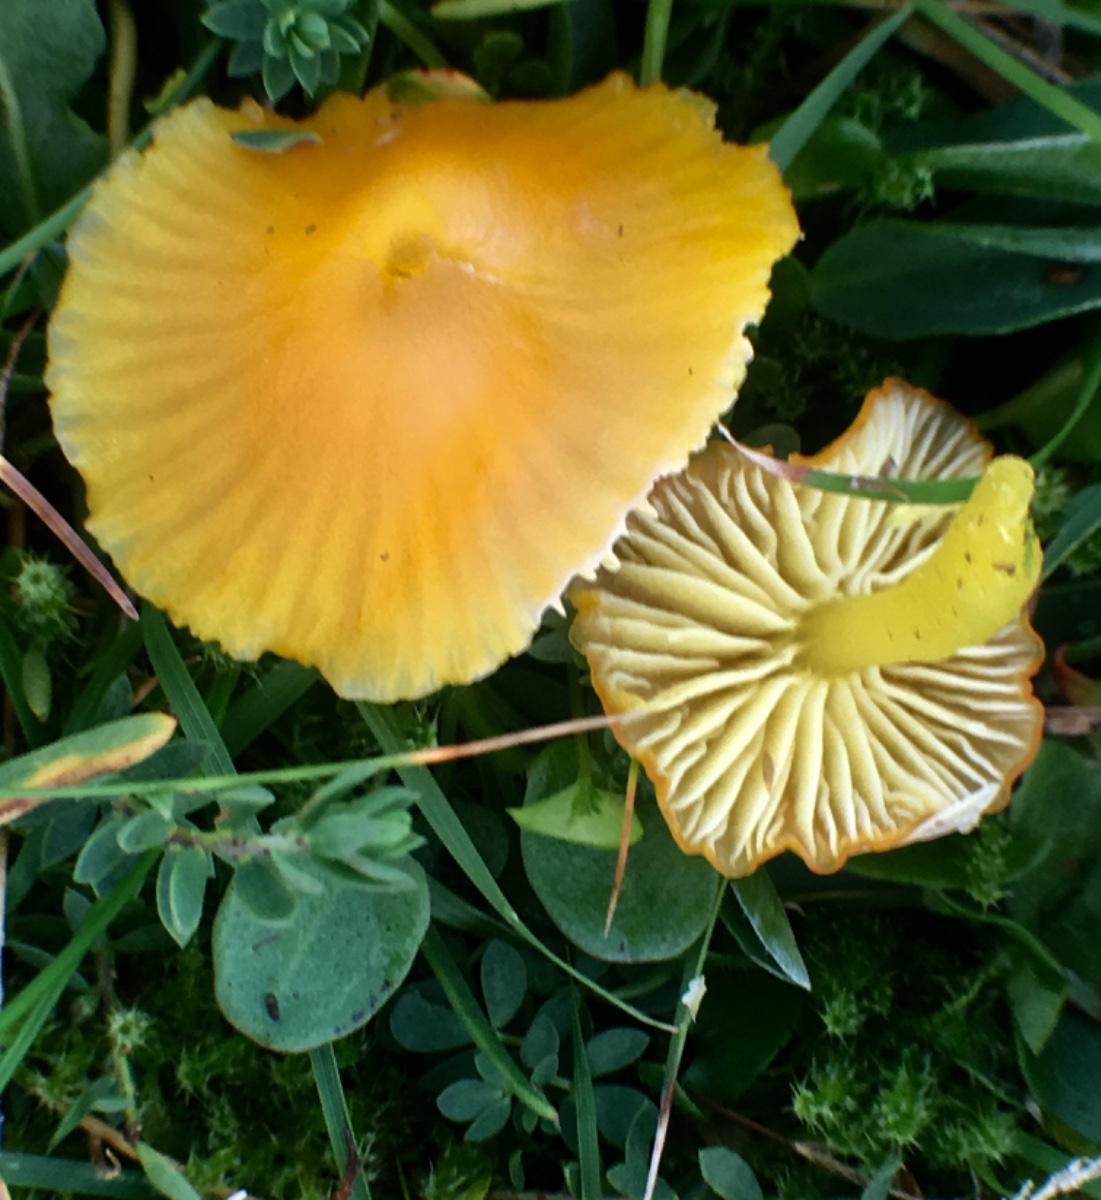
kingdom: Fungi
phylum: Basidiomycota
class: Agaricomycetes
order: Agaricales
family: Hygrophoraceae
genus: Hygrocybe
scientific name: Hygrocybe ceracea
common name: voksgul vokshat
